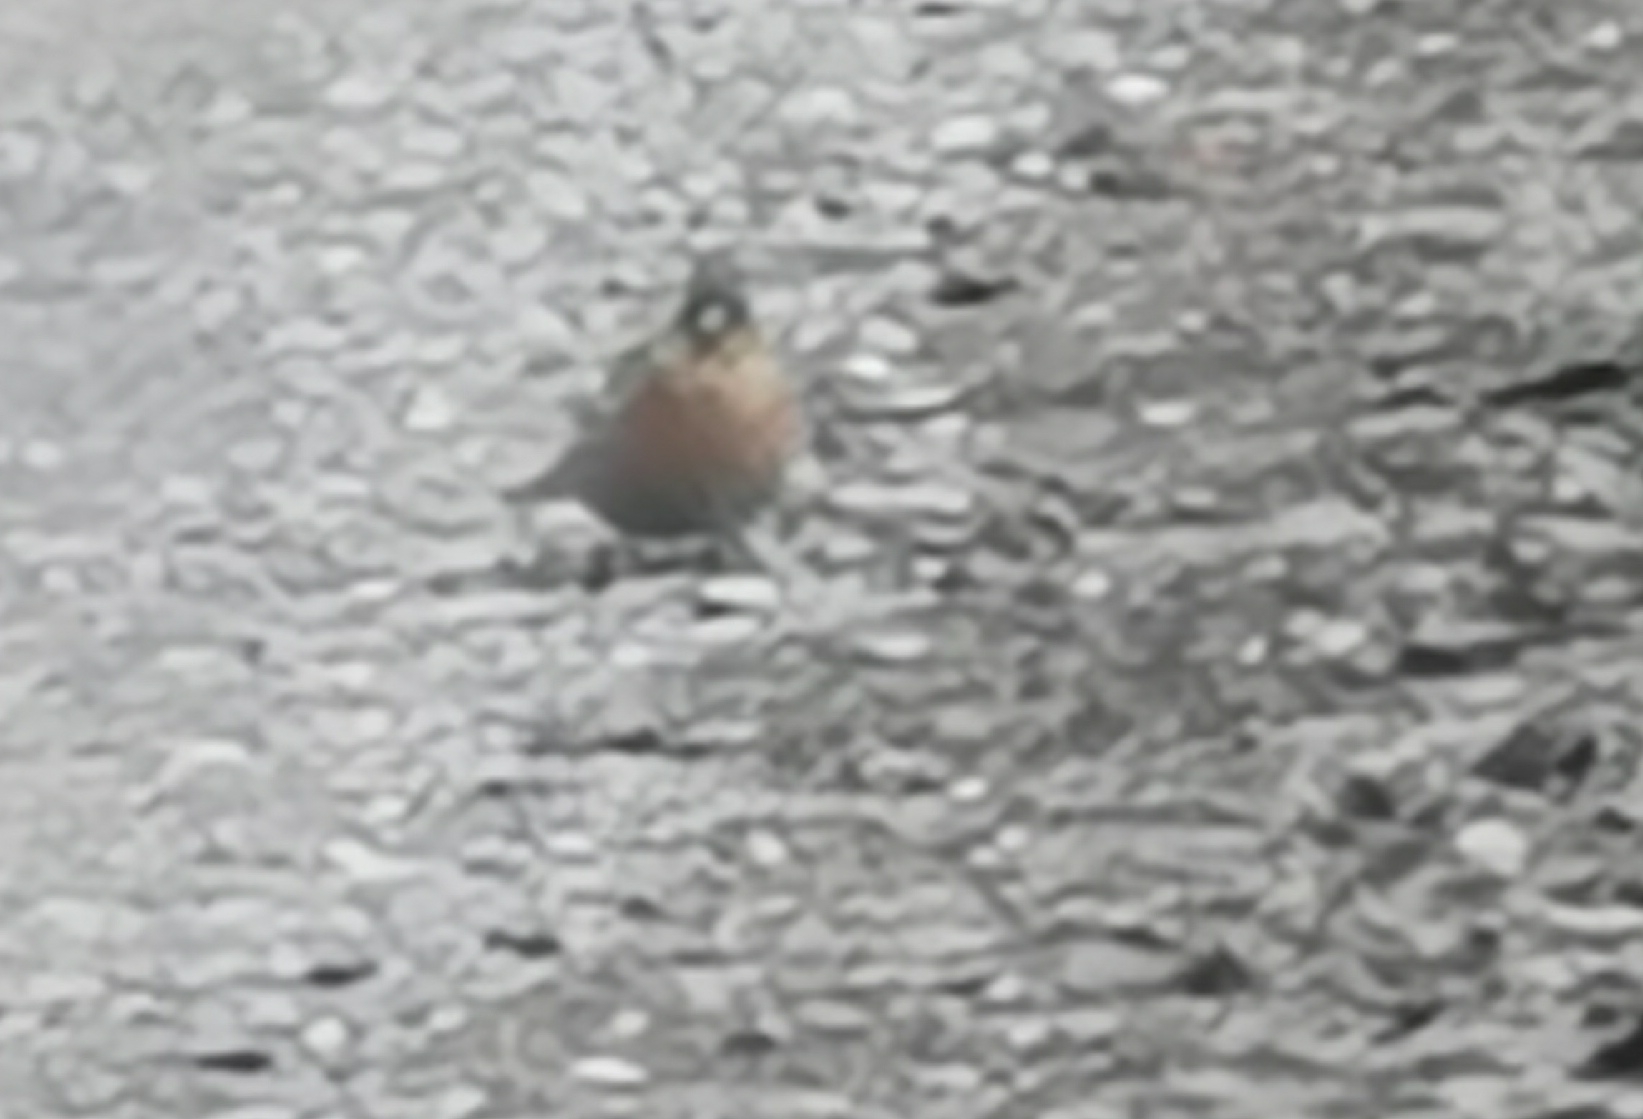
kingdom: Animalia
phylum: Chordata
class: Aves
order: Passeriformes
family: Fringillidae
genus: Fringilla
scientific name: Fringilla coelebs
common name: Bogfinke
